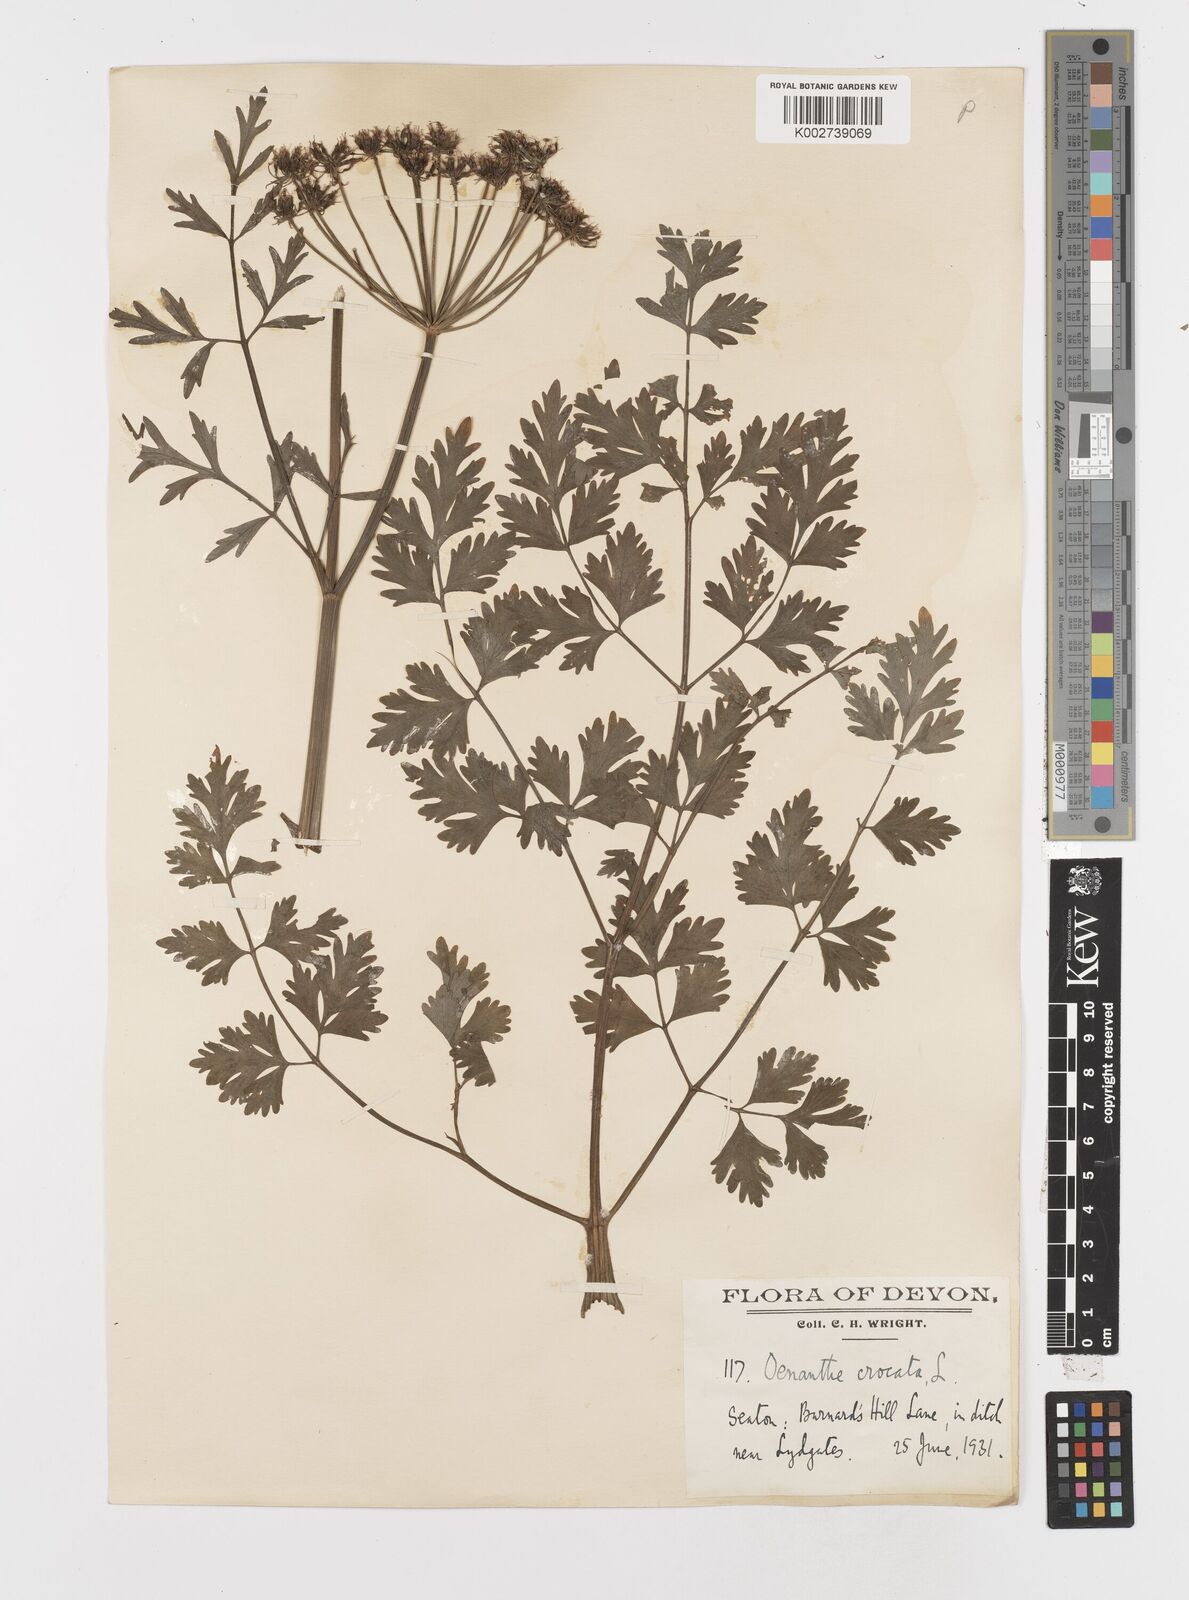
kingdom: Plantae
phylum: Tracheophyta
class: Magnoliopsida
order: Apiales
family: Apiaceae
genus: Oenanthe
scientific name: Oenanthe crocata
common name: Hemlock water-dropwort
